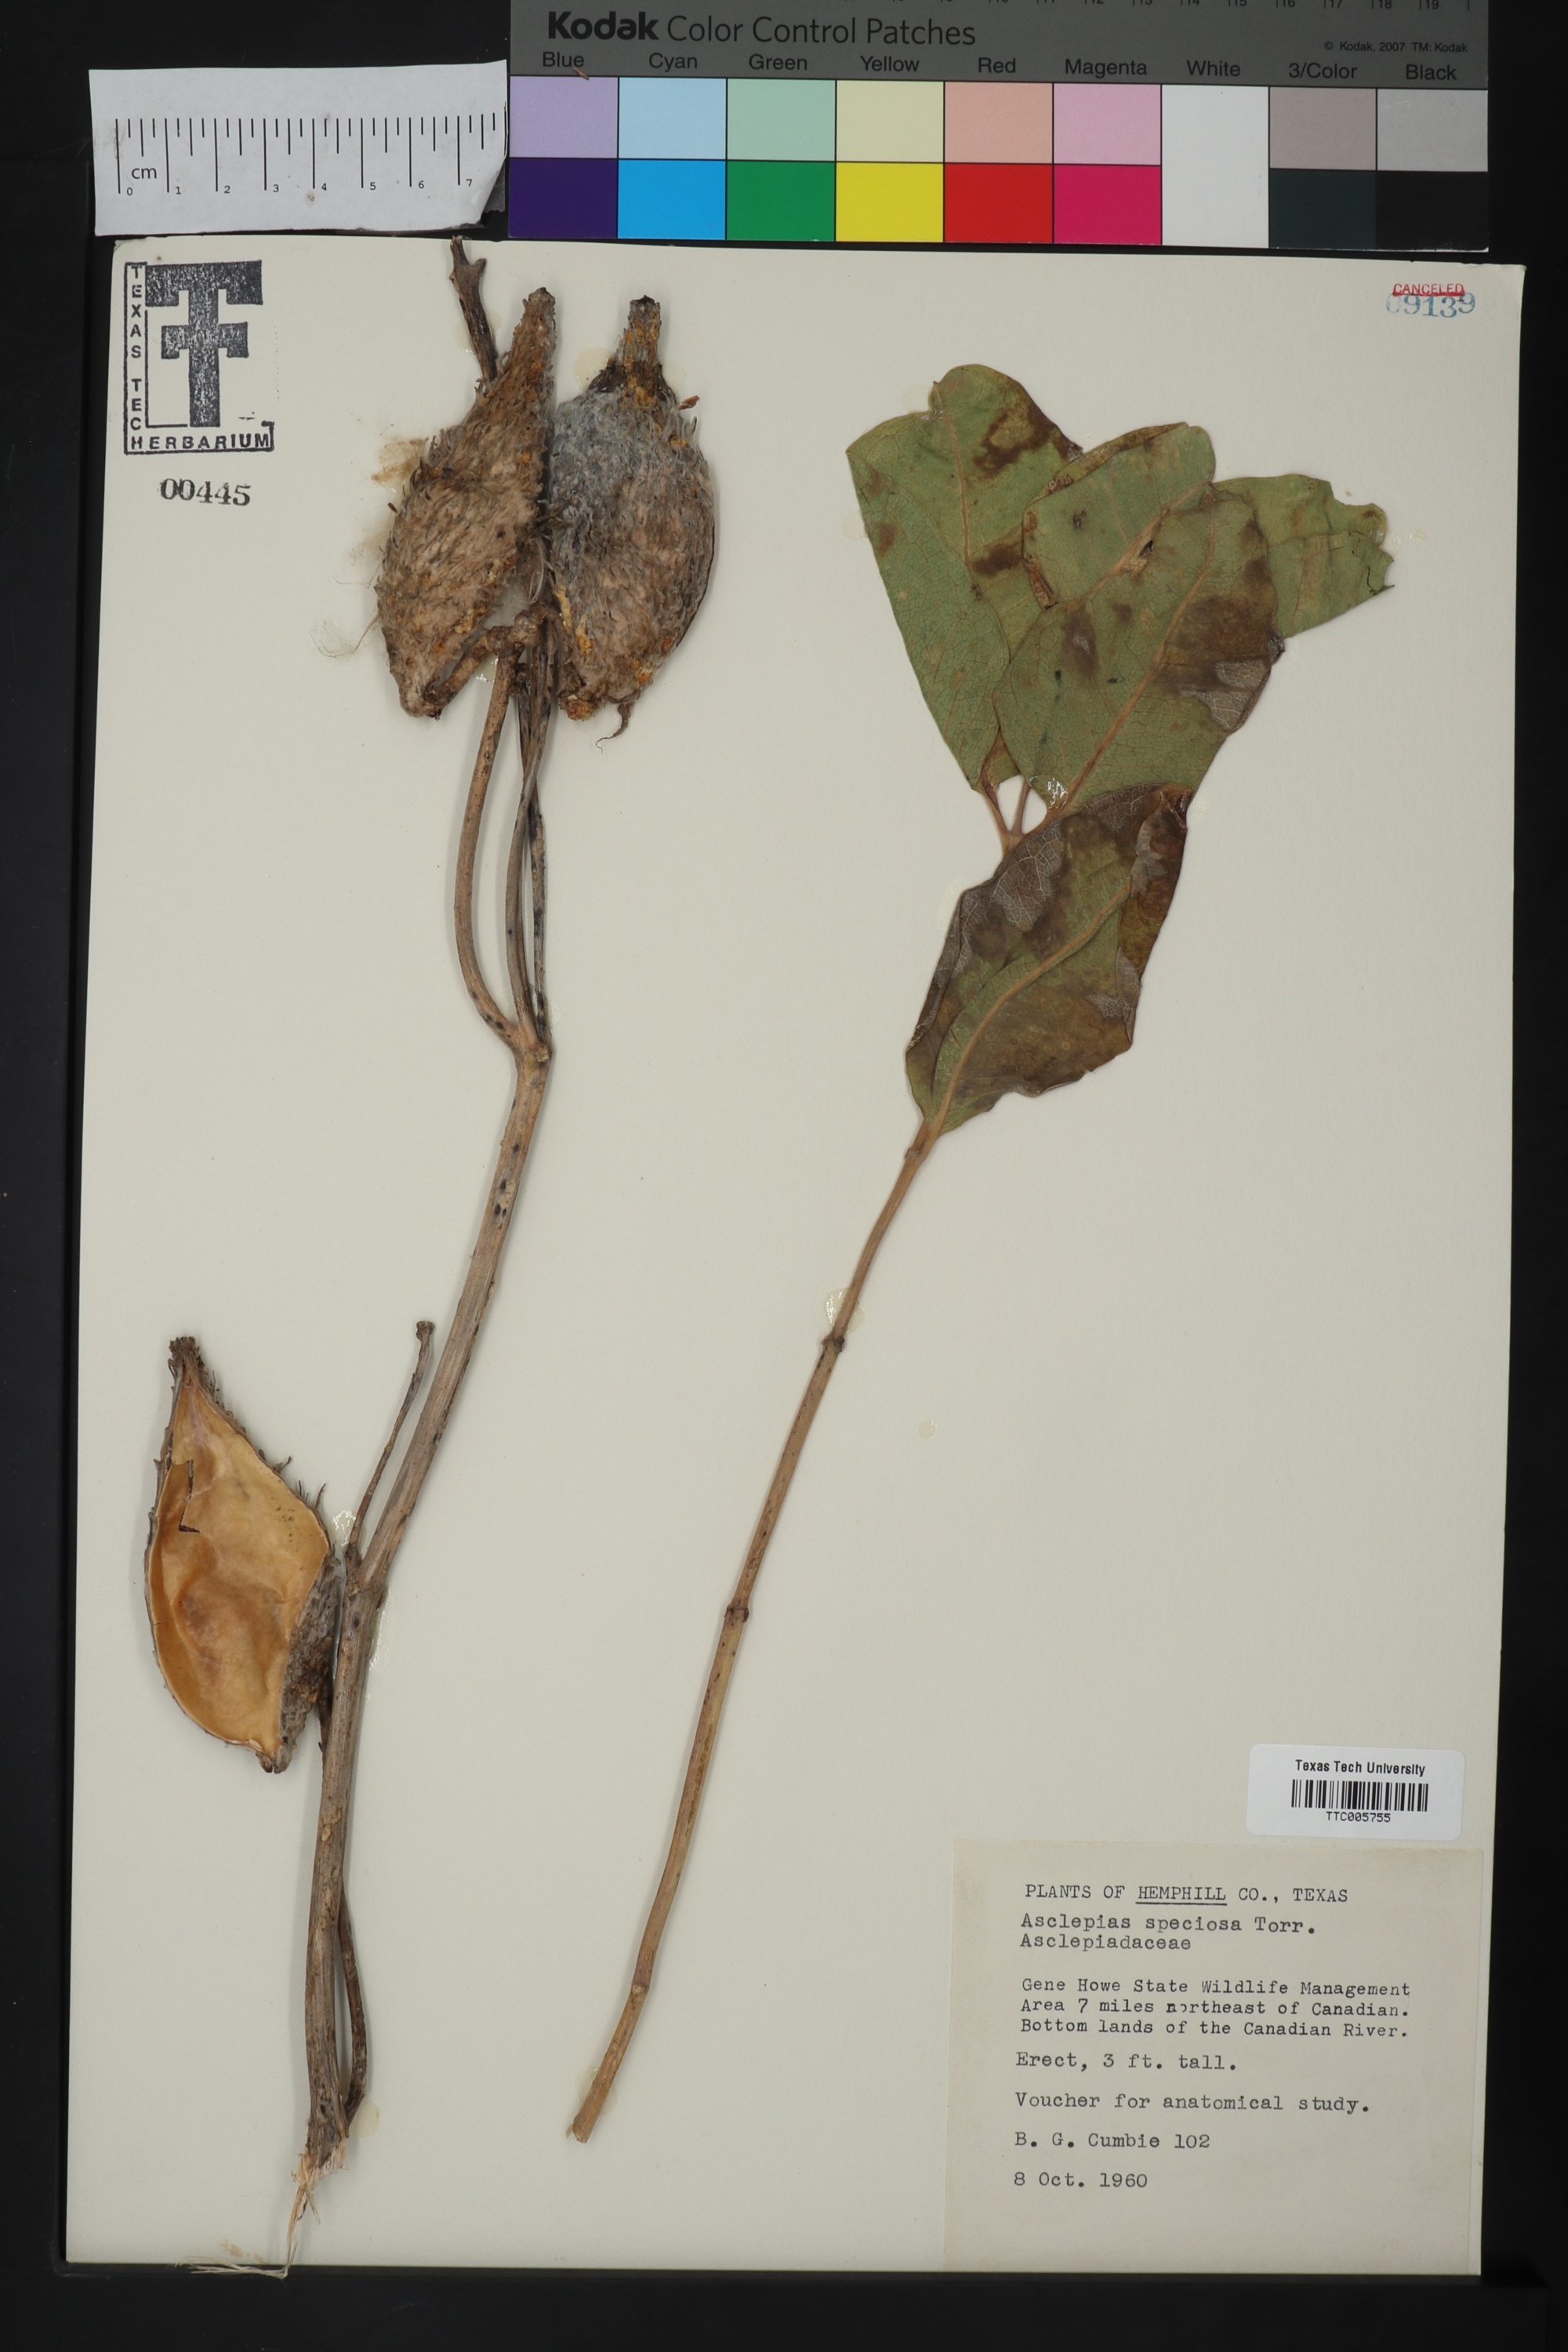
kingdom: Plantae
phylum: Tracheophyta
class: Magnoliopsida
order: Gentianales
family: Apocynaceae
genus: Asclepias
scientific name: Asclepias speciosa
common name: Showy milkweed
